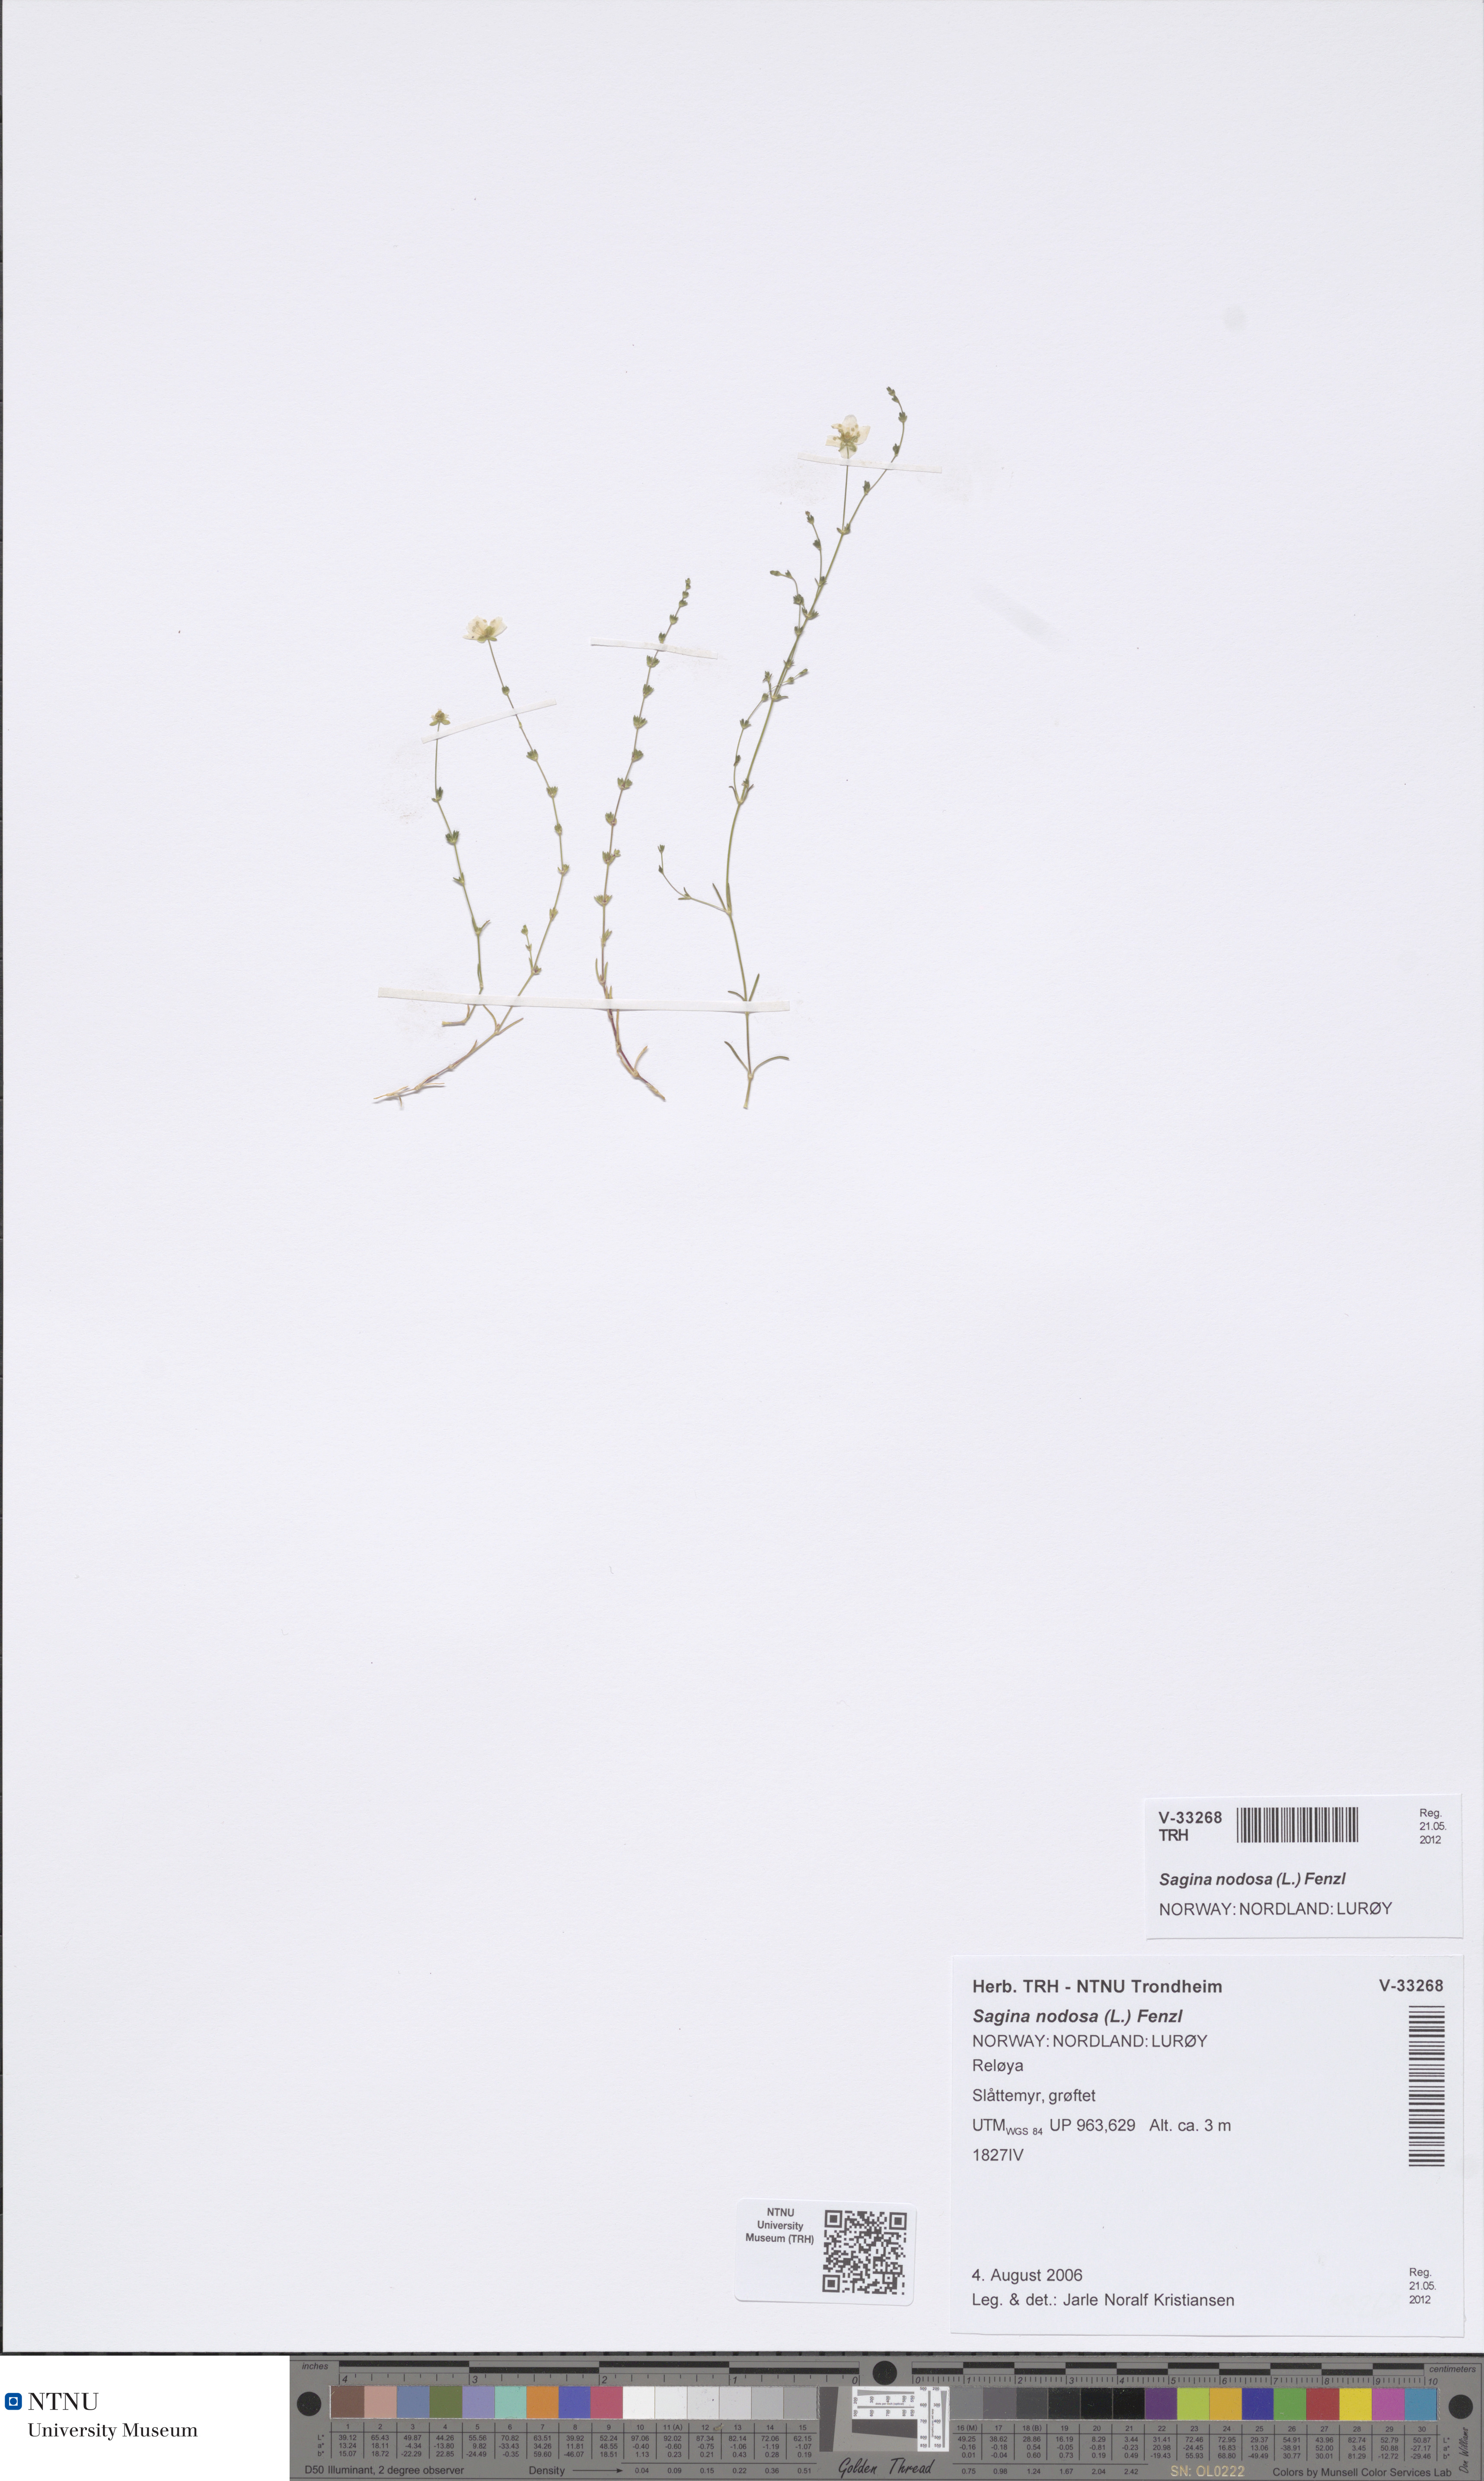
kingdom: Plantae
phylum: Tracheophyta
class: Magnoliopsida
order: Caryophyllales
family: Caryophyllaceae
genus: Sagina
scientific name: Sagina nodosa
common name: Knotted pearlwort
